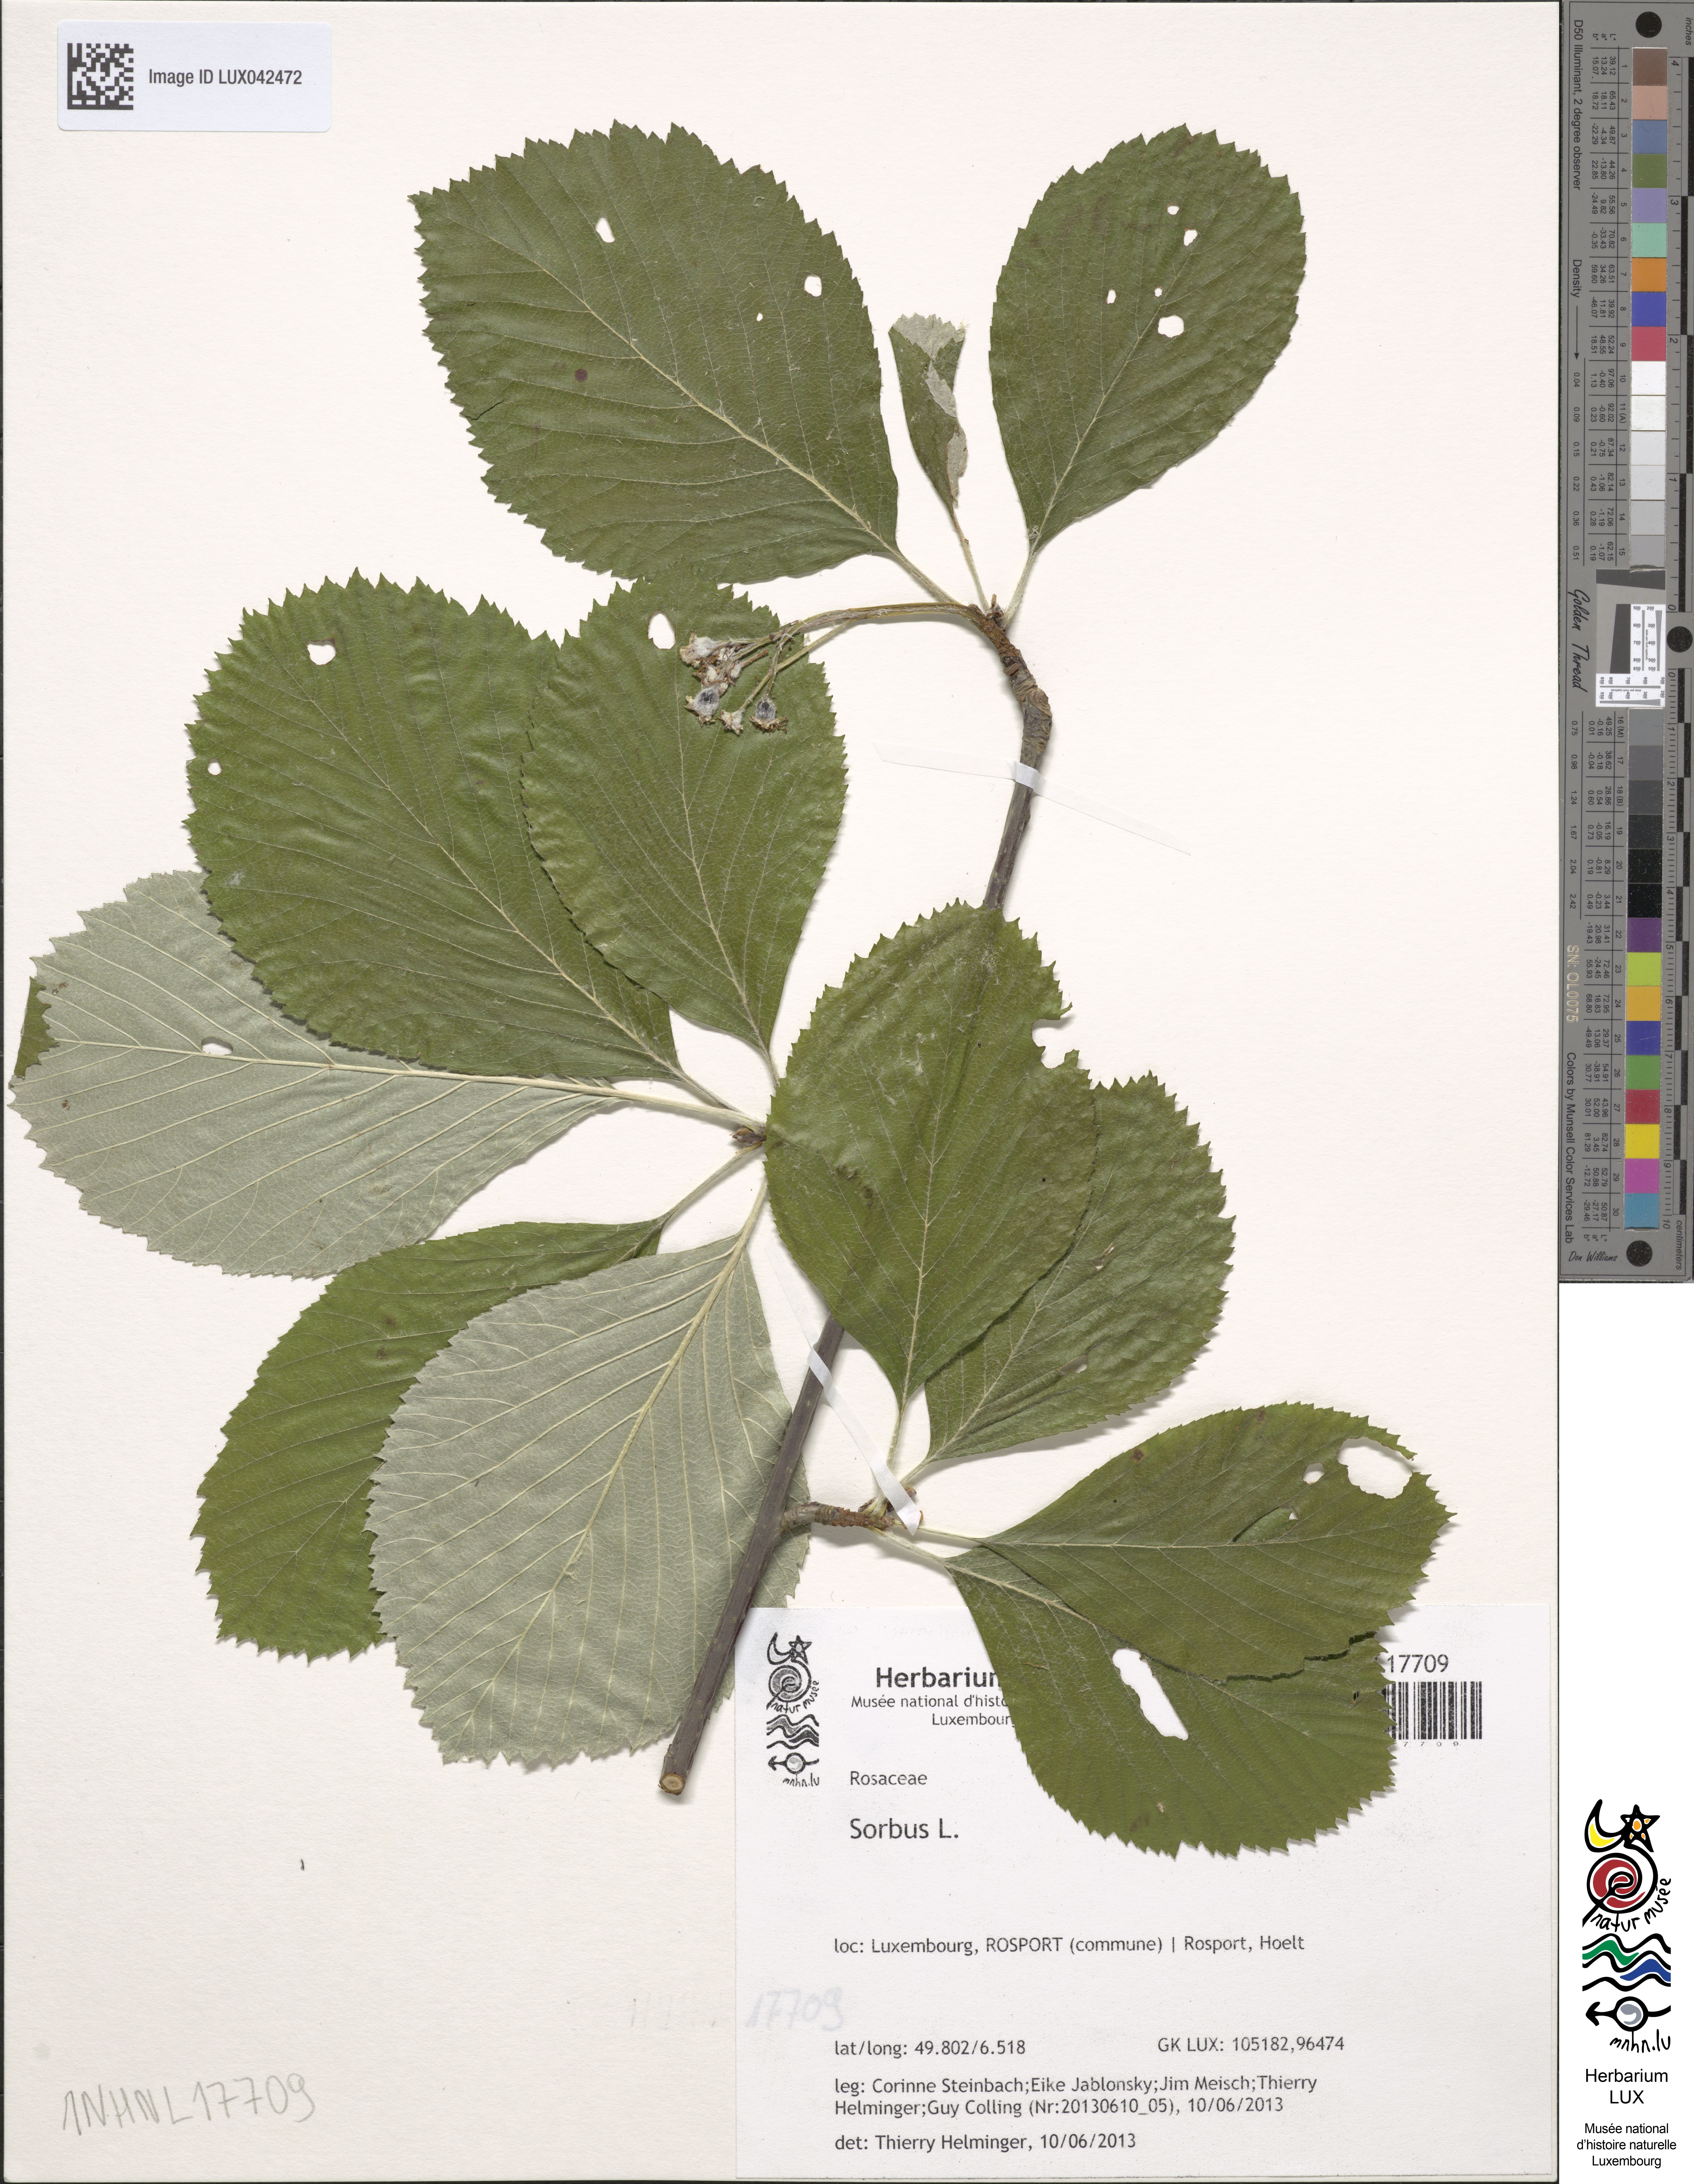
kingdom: Plantae
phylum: Tracheophyta
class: Magnoliopsida
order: Rosales
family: Rosaceae
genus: Sorbus
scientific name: Sorbus
